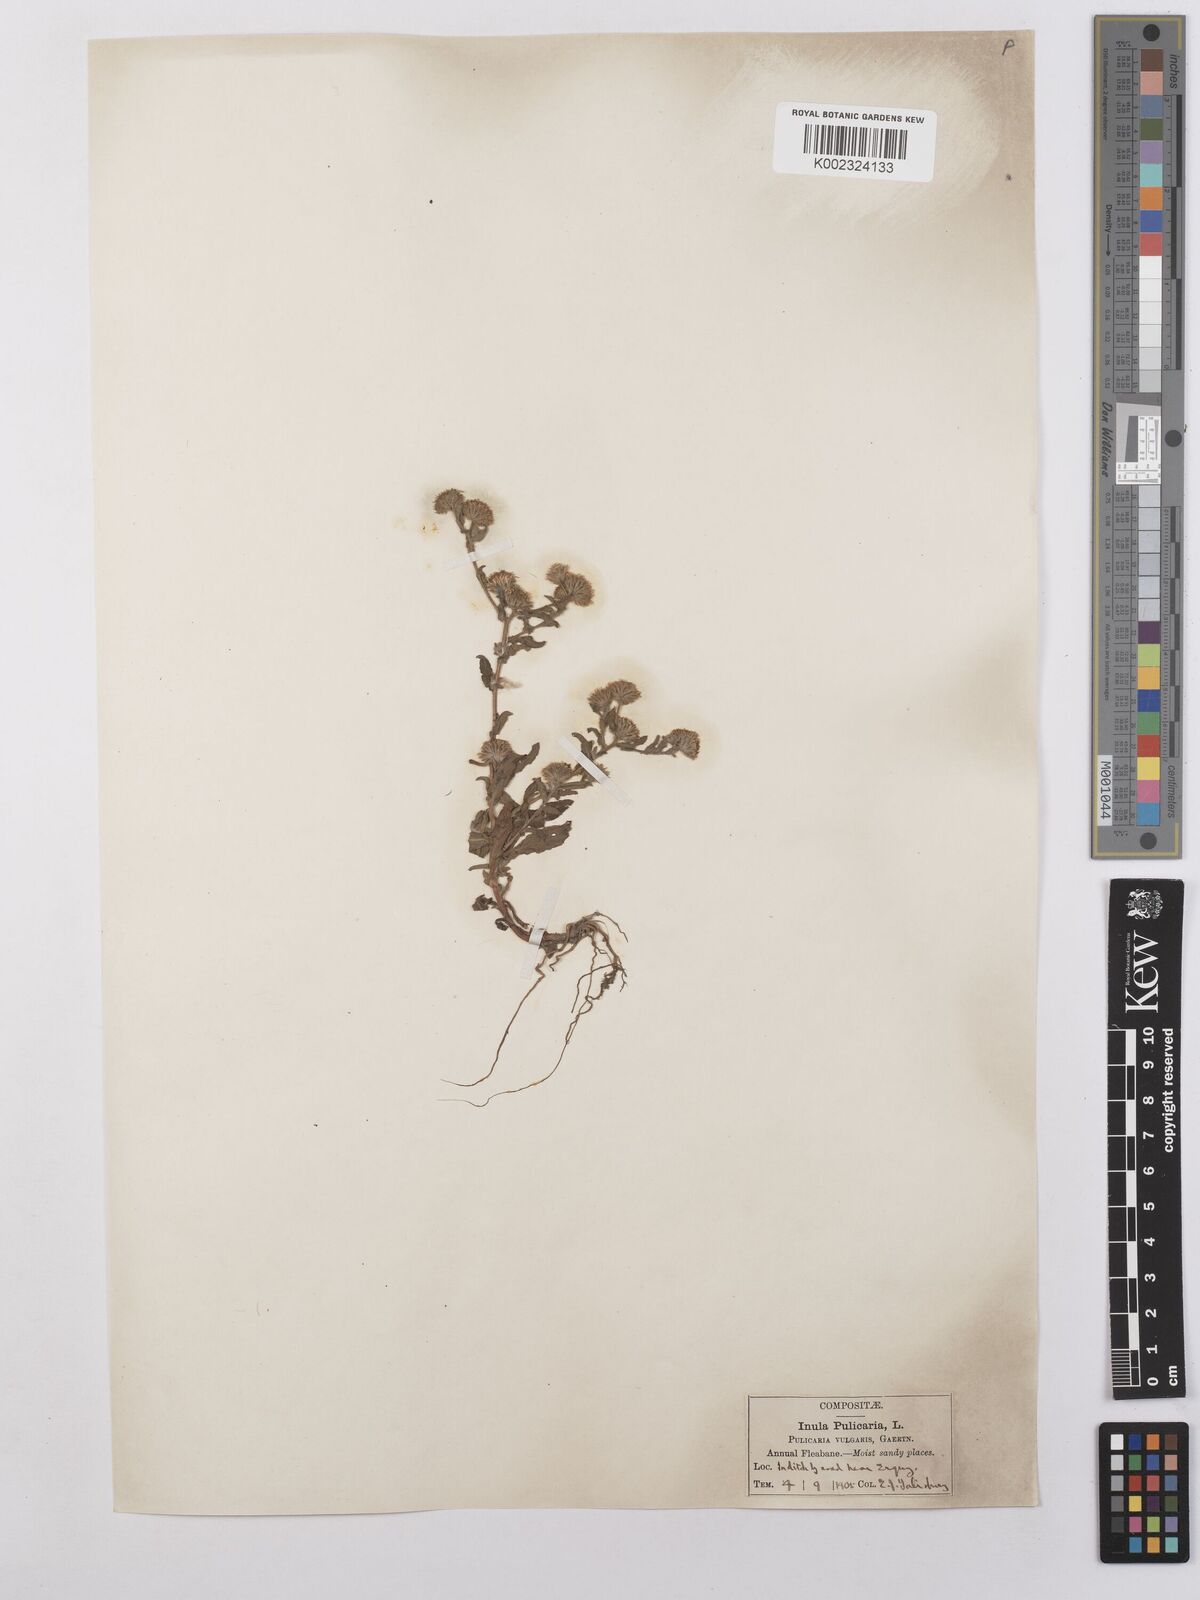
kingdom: Plantae
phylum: Tracheophyta
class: Magnoliopsida
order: Asterales
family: Asteraceae
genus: Pulicaria
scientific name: Pulicaria vulgaris
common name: Small fleabane
